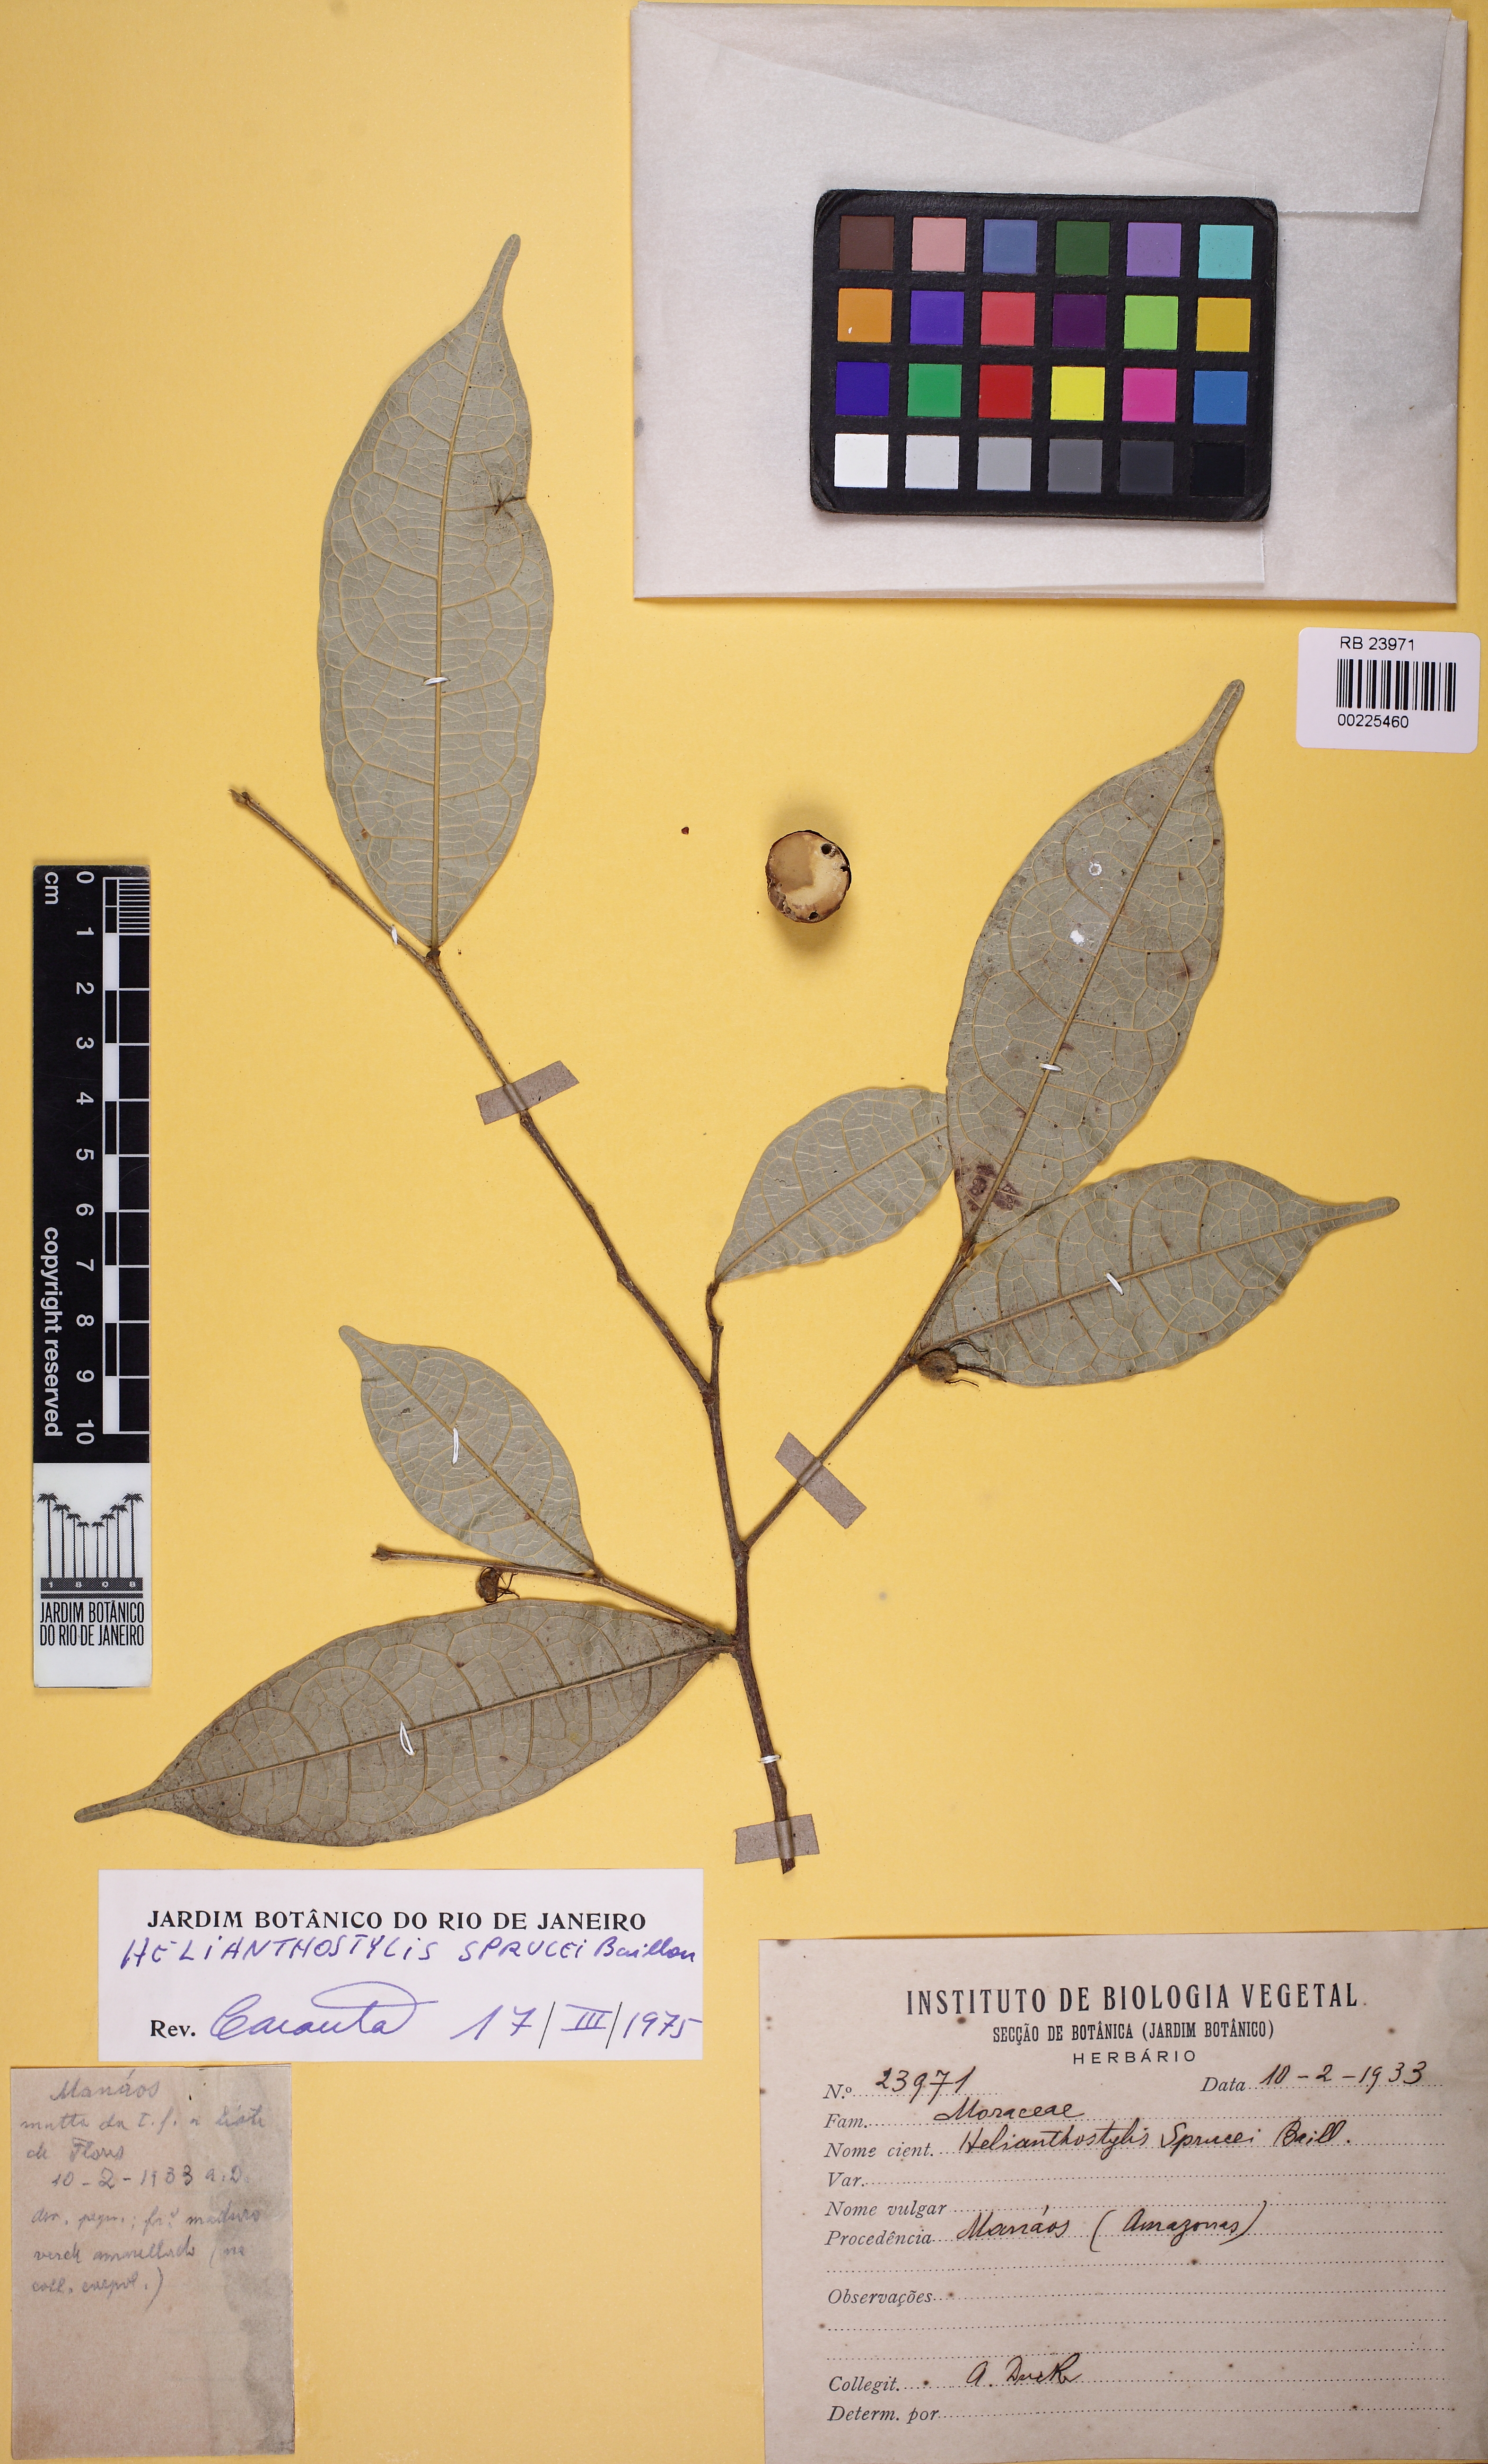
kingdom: Plantae
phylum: Tracheophyta
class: Magnoliopsida
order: Rosales
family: Moraceae
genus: Brosimum
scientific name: Brosimum sprucei
